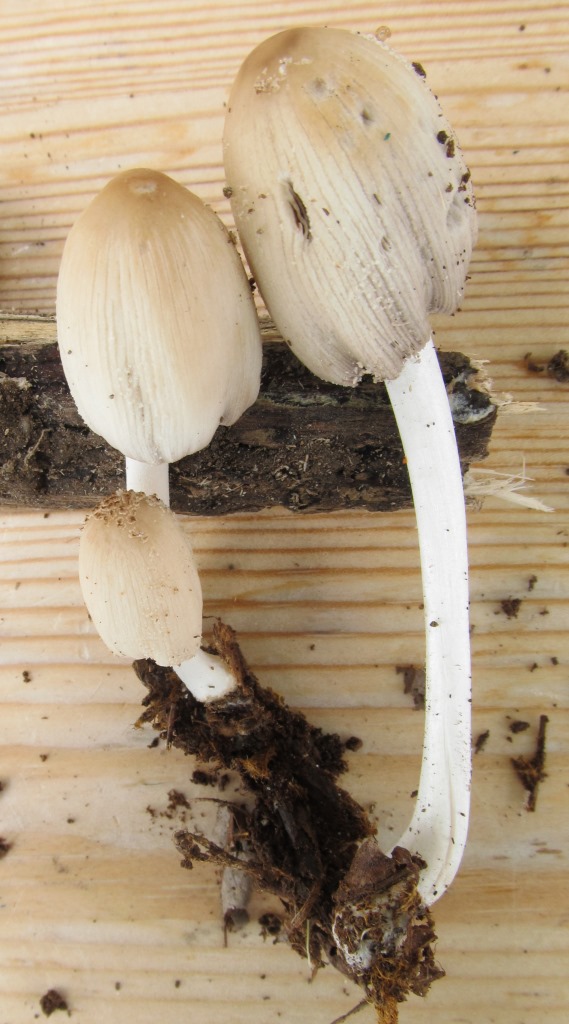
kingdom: Fungi
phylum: Basidiomycota
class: Agaricomycetes
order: Agaricales
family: Psathyrellaceae
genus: Coprinellus
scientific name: Coprinellus radians
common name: grynet blækhat
